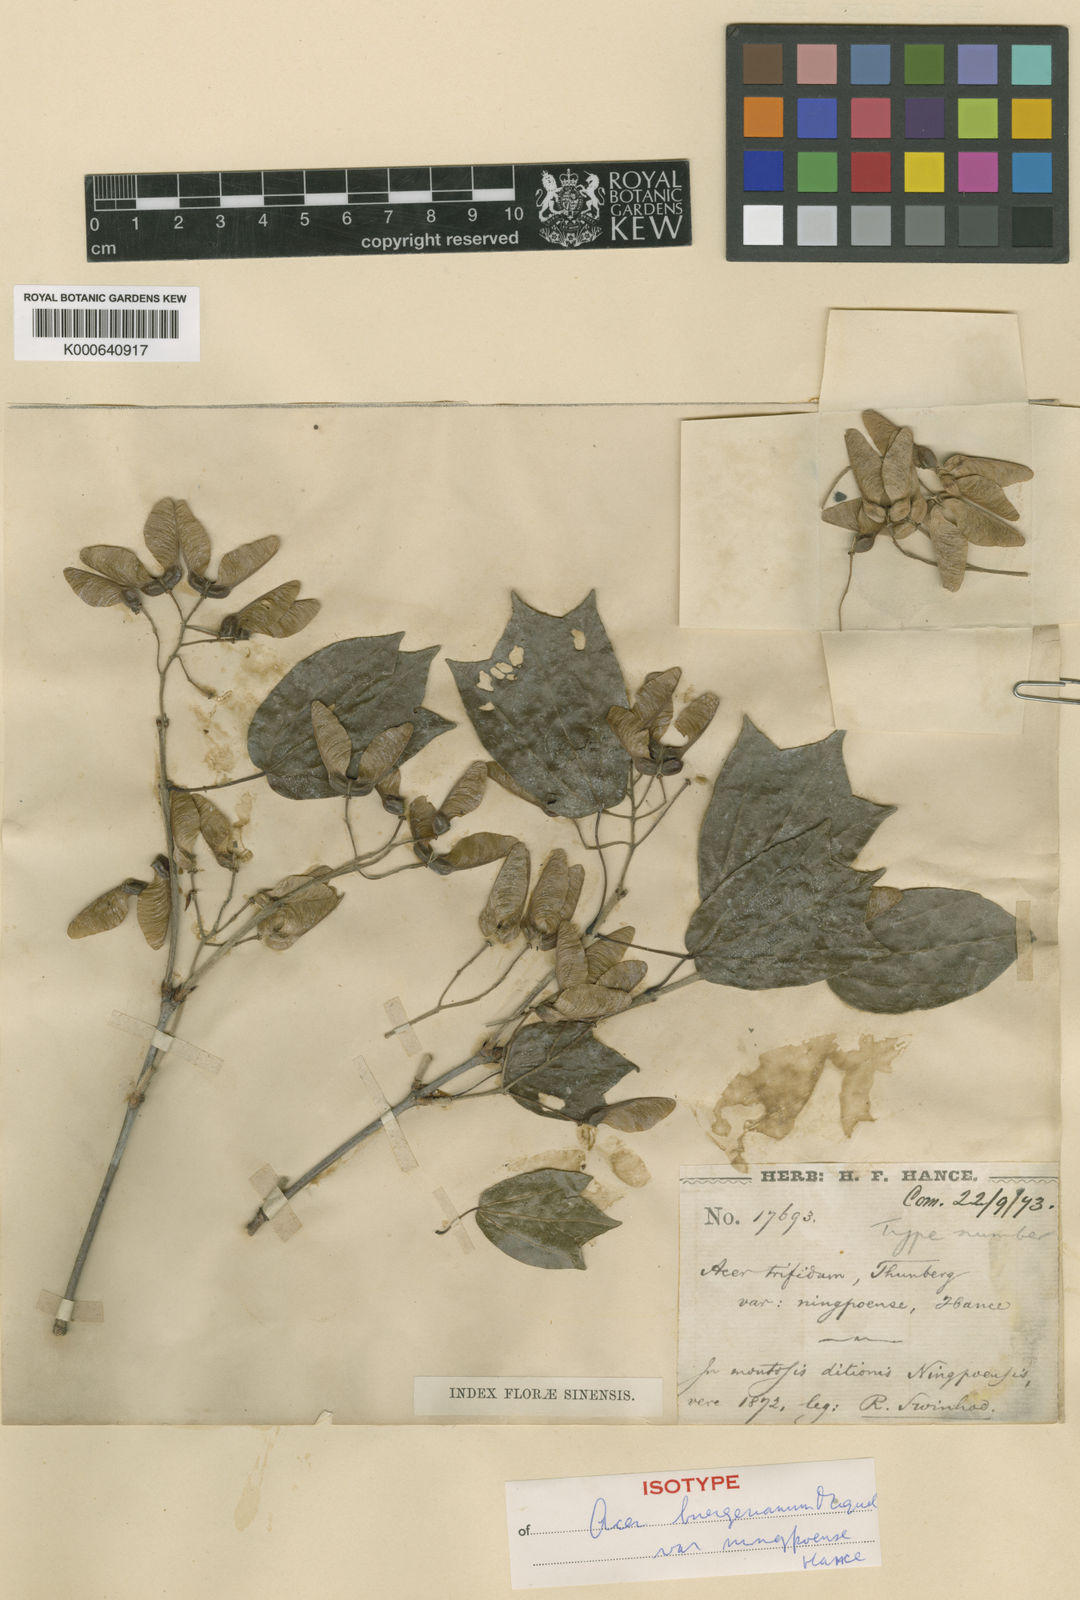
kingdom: Plantae
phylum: Tracheophyta
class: Magnoliopsida
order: Sapindales
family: Sapindaceae
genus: Acer
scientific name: Acer buergerianum
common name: Trident maple
